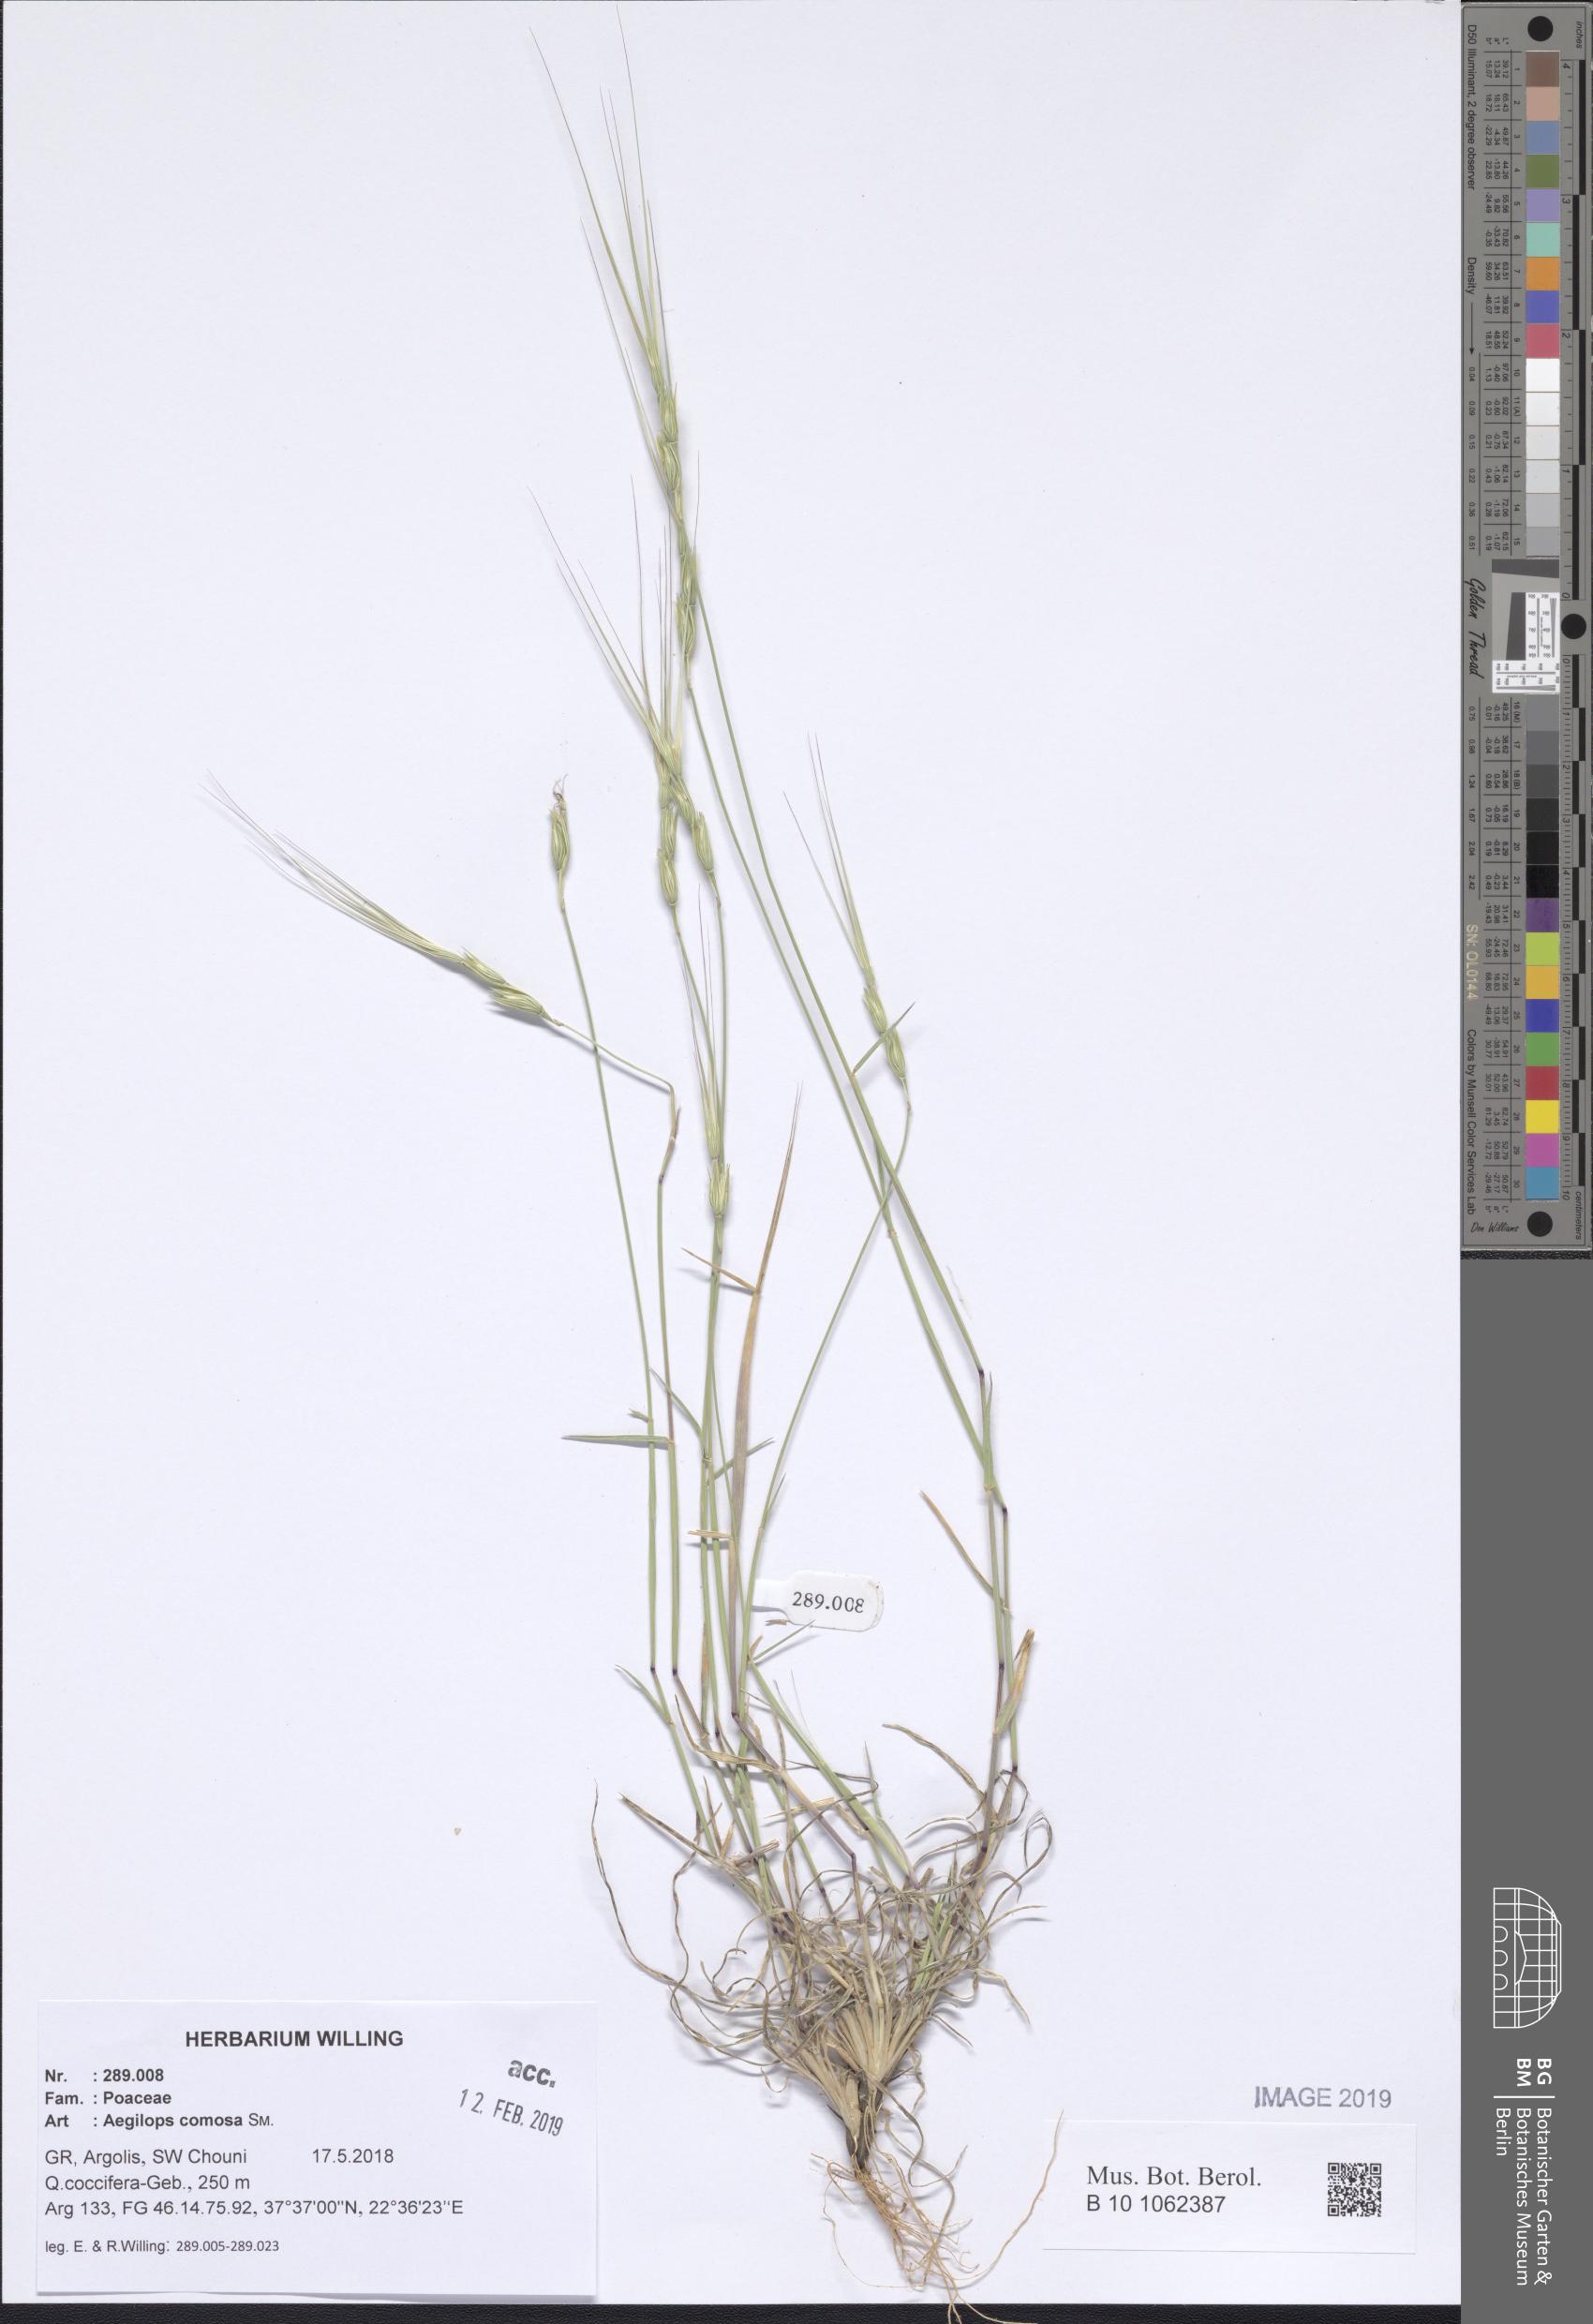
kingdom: Plantae
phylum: Tracheophyta
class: Liliopsida
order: Poales
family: Poaceae
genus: Aegilops
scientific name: Aegilops comosa
